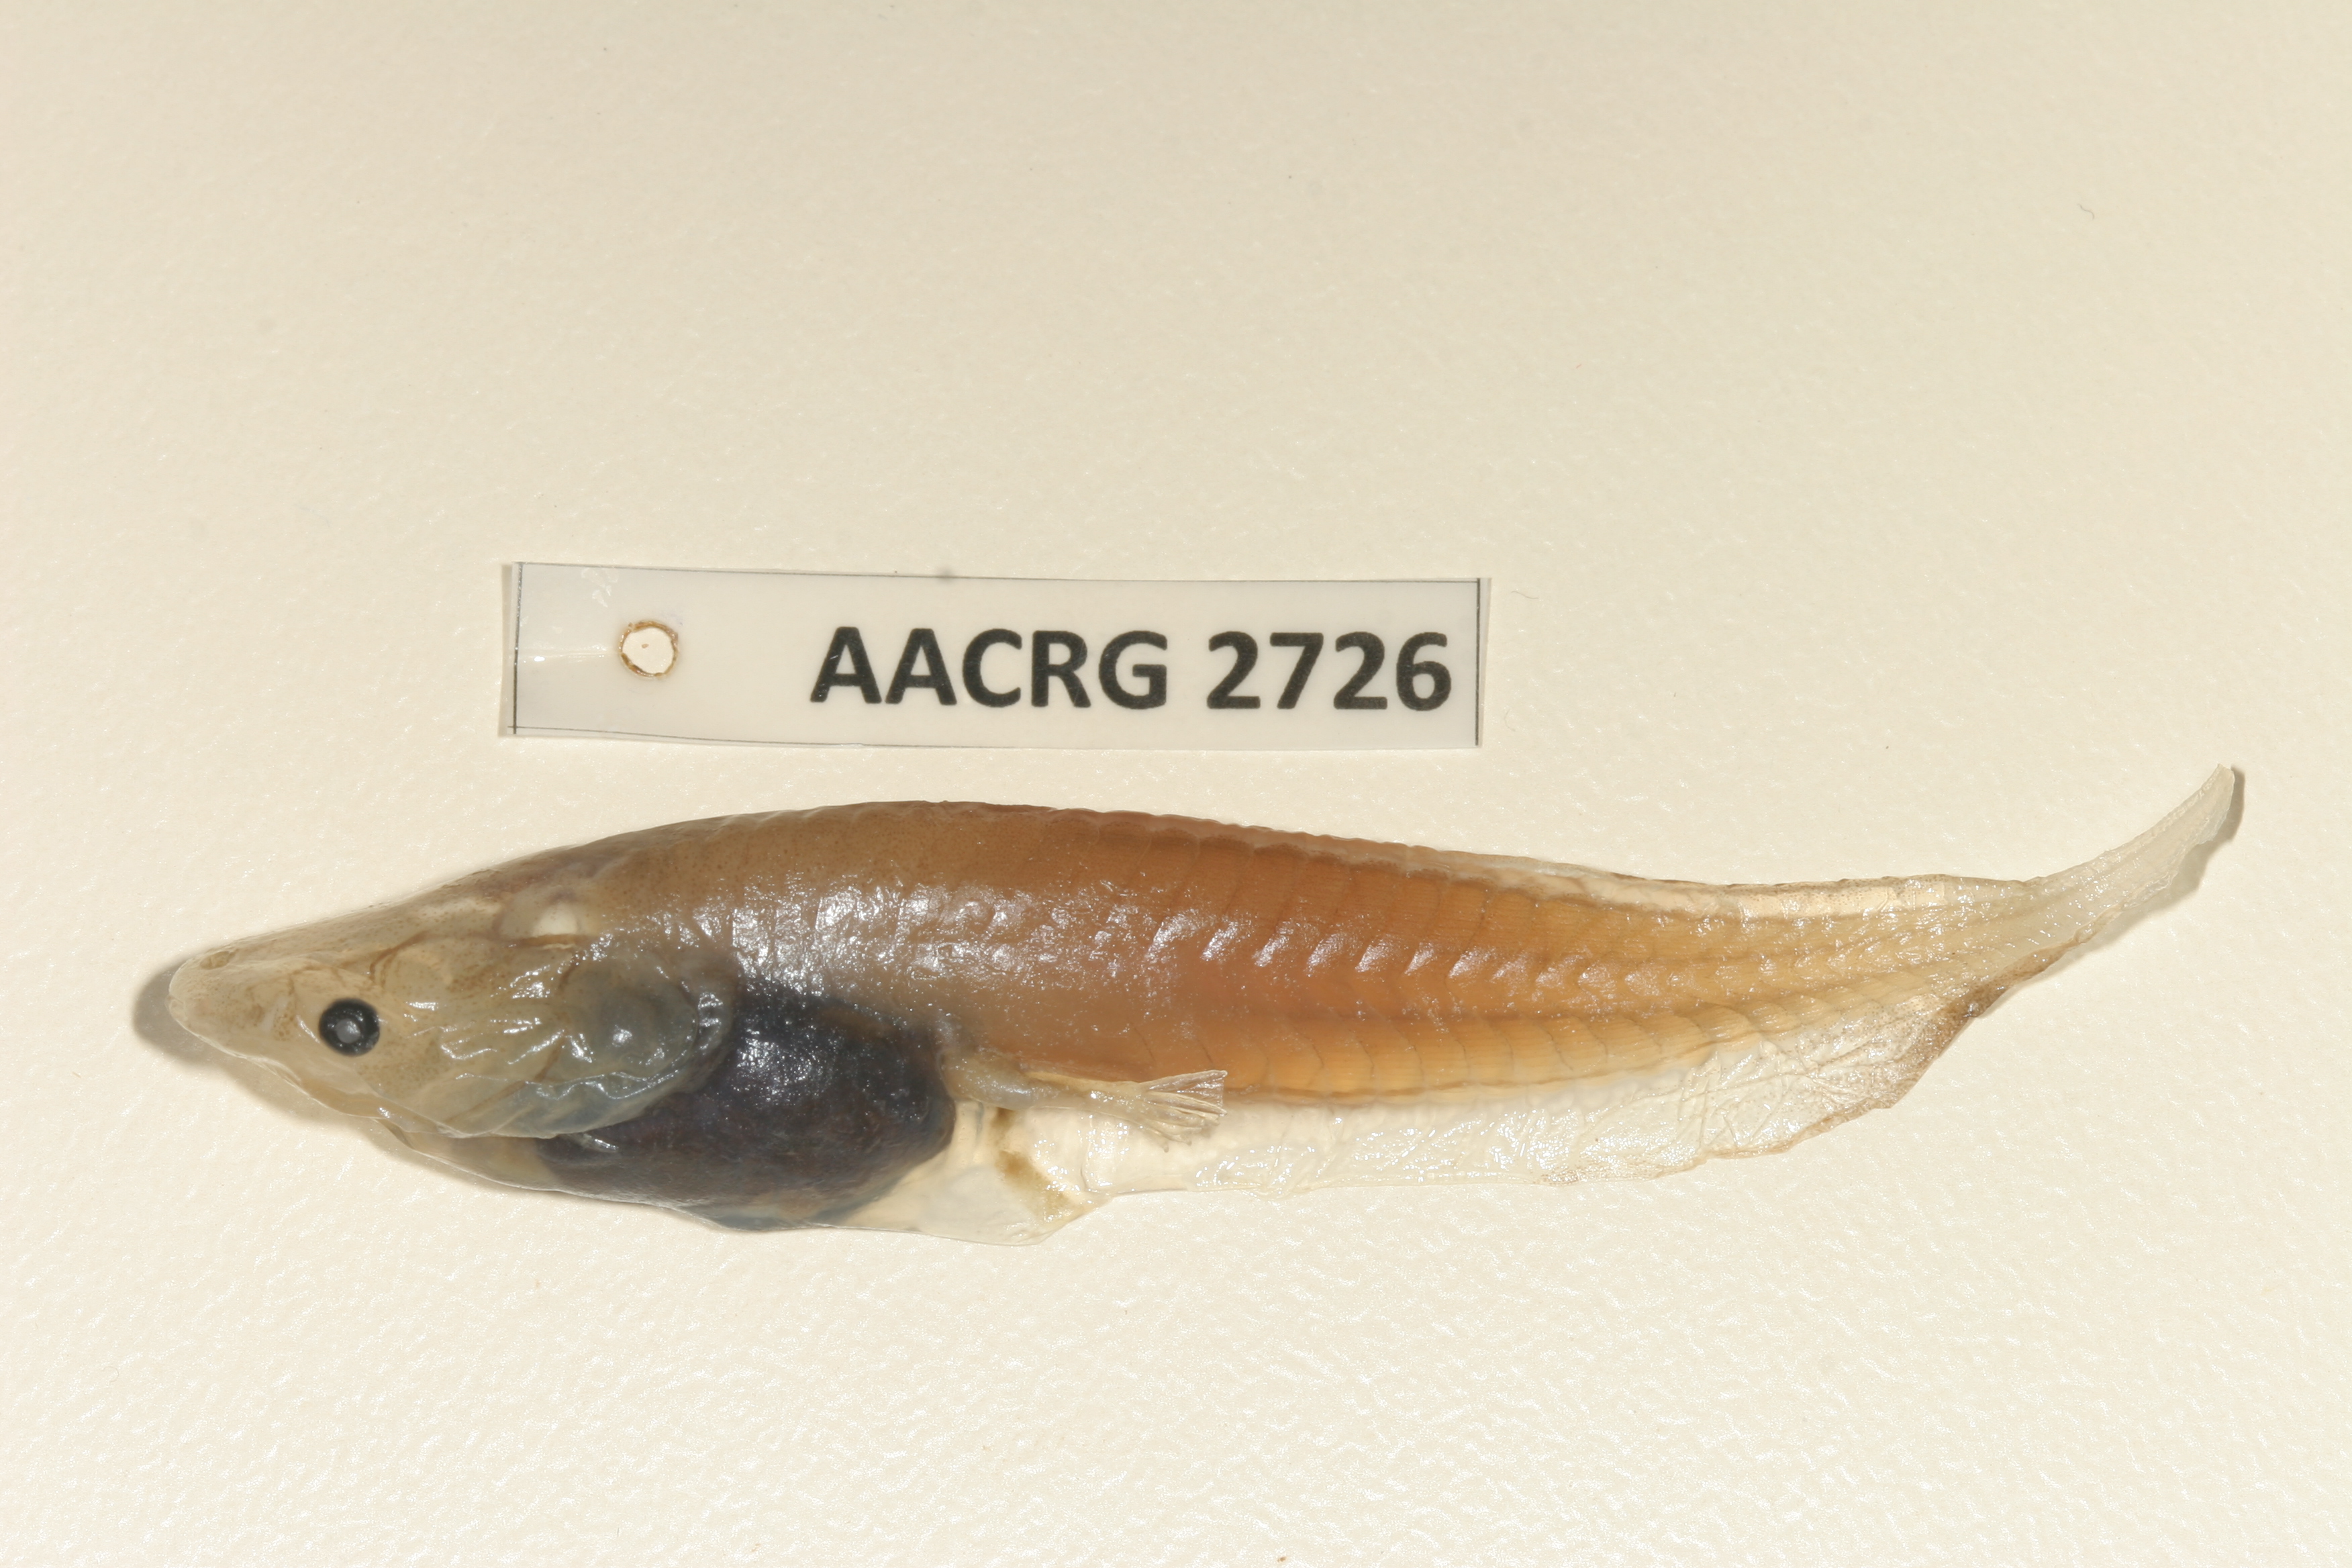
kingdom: Animalia
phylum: Chordata
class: Amphibia
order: Anura
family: Pipidae
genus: Xenopus
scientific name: Xenopus muelleri
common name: Muller's clawed frog
